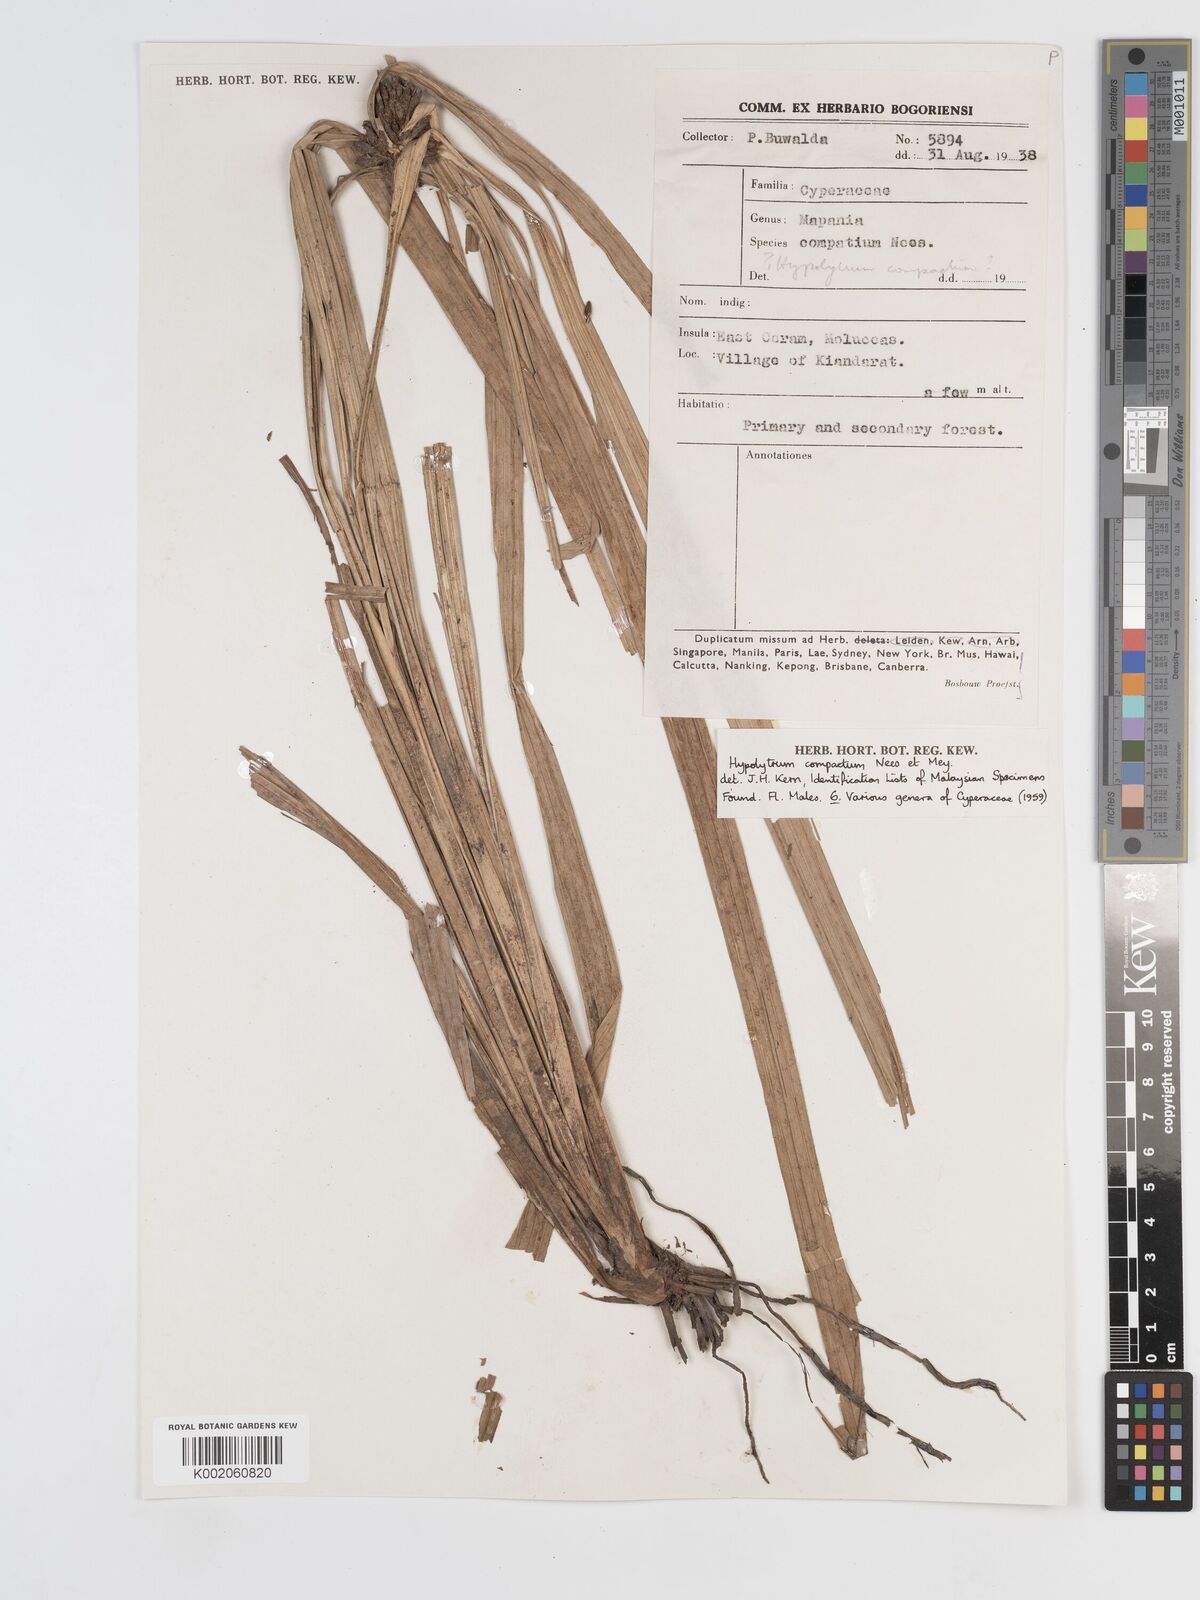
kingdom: Plantae
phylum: Tracheophyta
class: Liliopsida
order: Poales
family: Cyperaceae
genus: Hypolytrum
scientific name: Hypolytrum compactum
